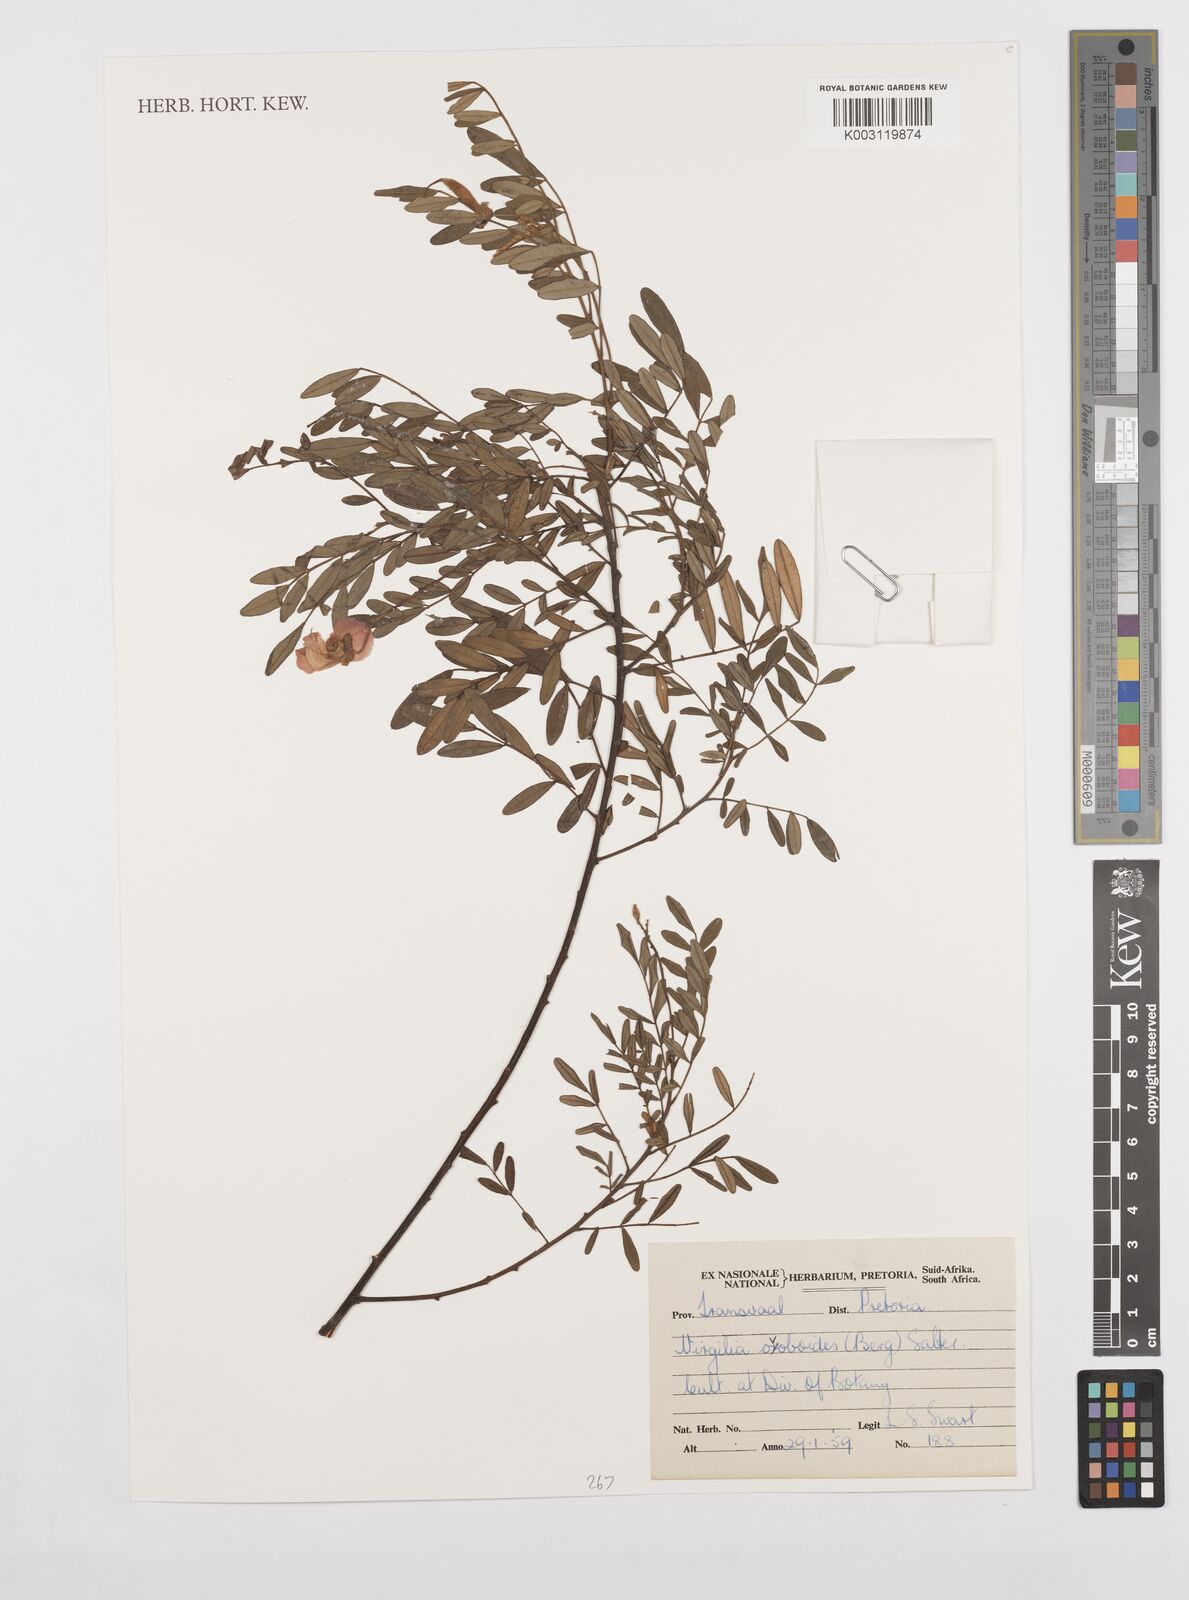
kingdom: Plantae
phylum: Tracheophyta
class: Magnoliopsida
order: Fabales
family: Fabaceae
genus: Virgilia
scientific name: Virgilia oroboides
